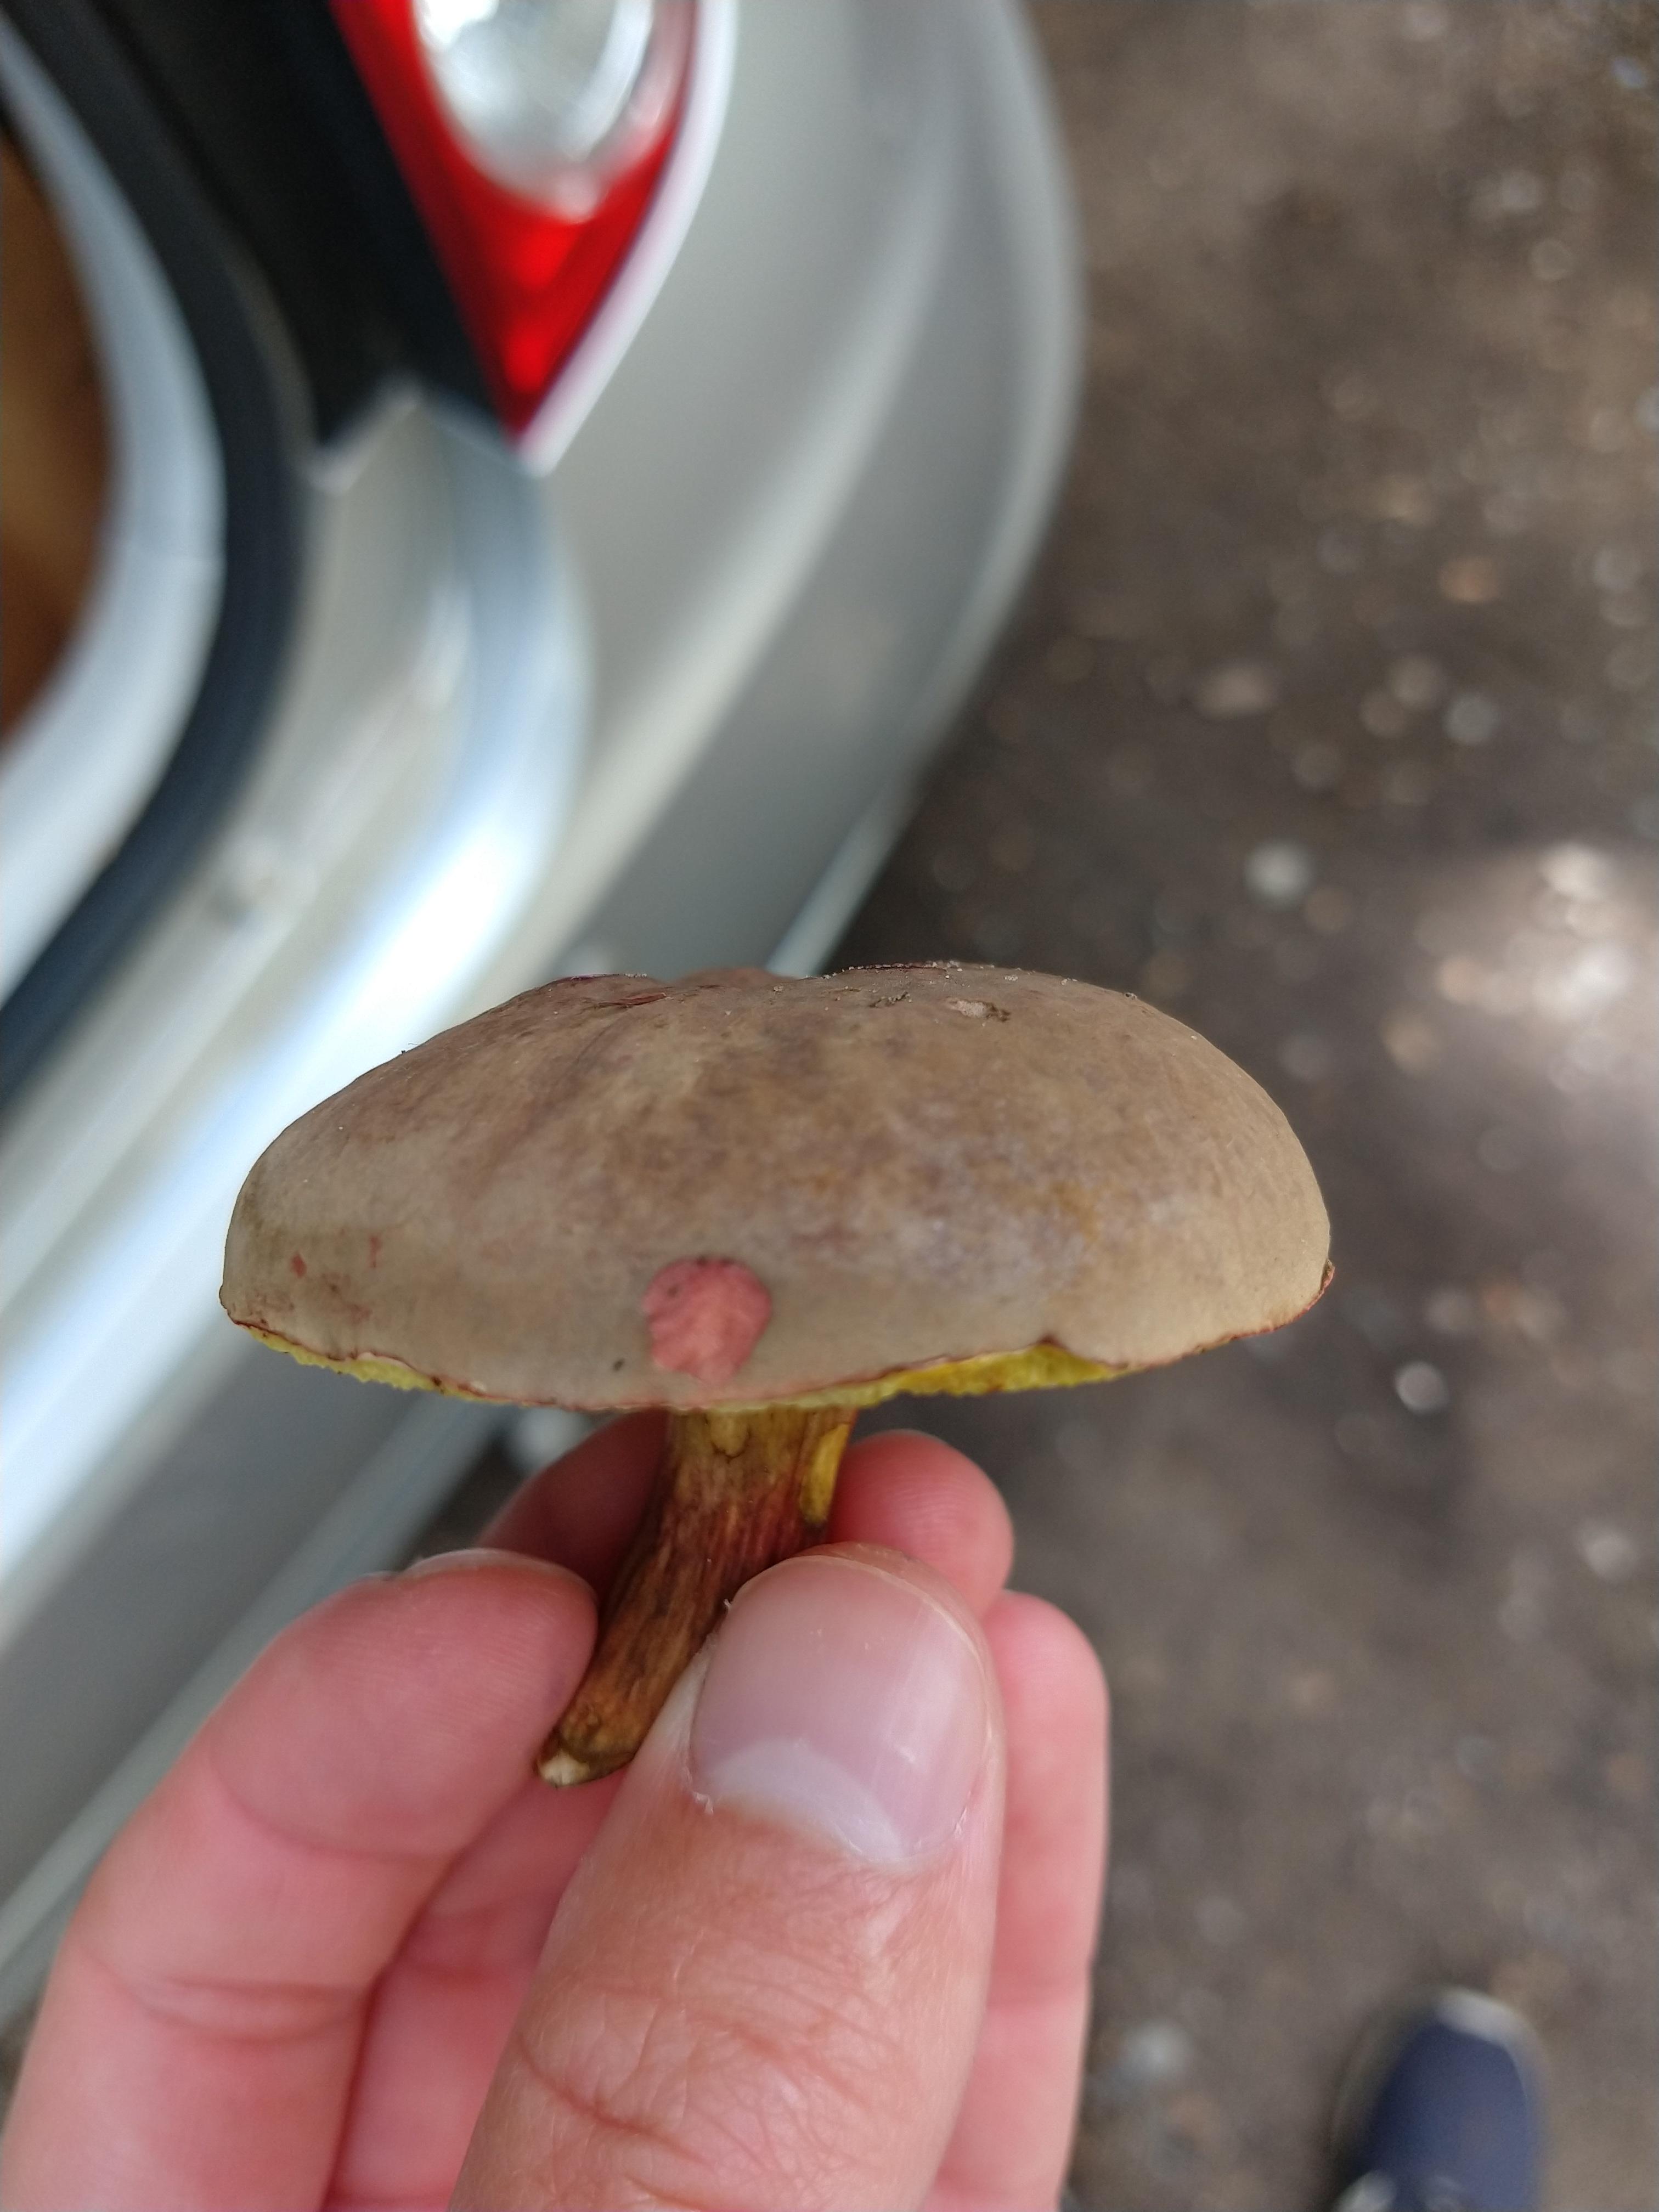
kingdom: Fungi
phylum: Basidiomycota
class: Agaricomycetes
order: Boletales
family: Boletaceae
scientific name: Boletaceae
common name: rørhatfamilien
